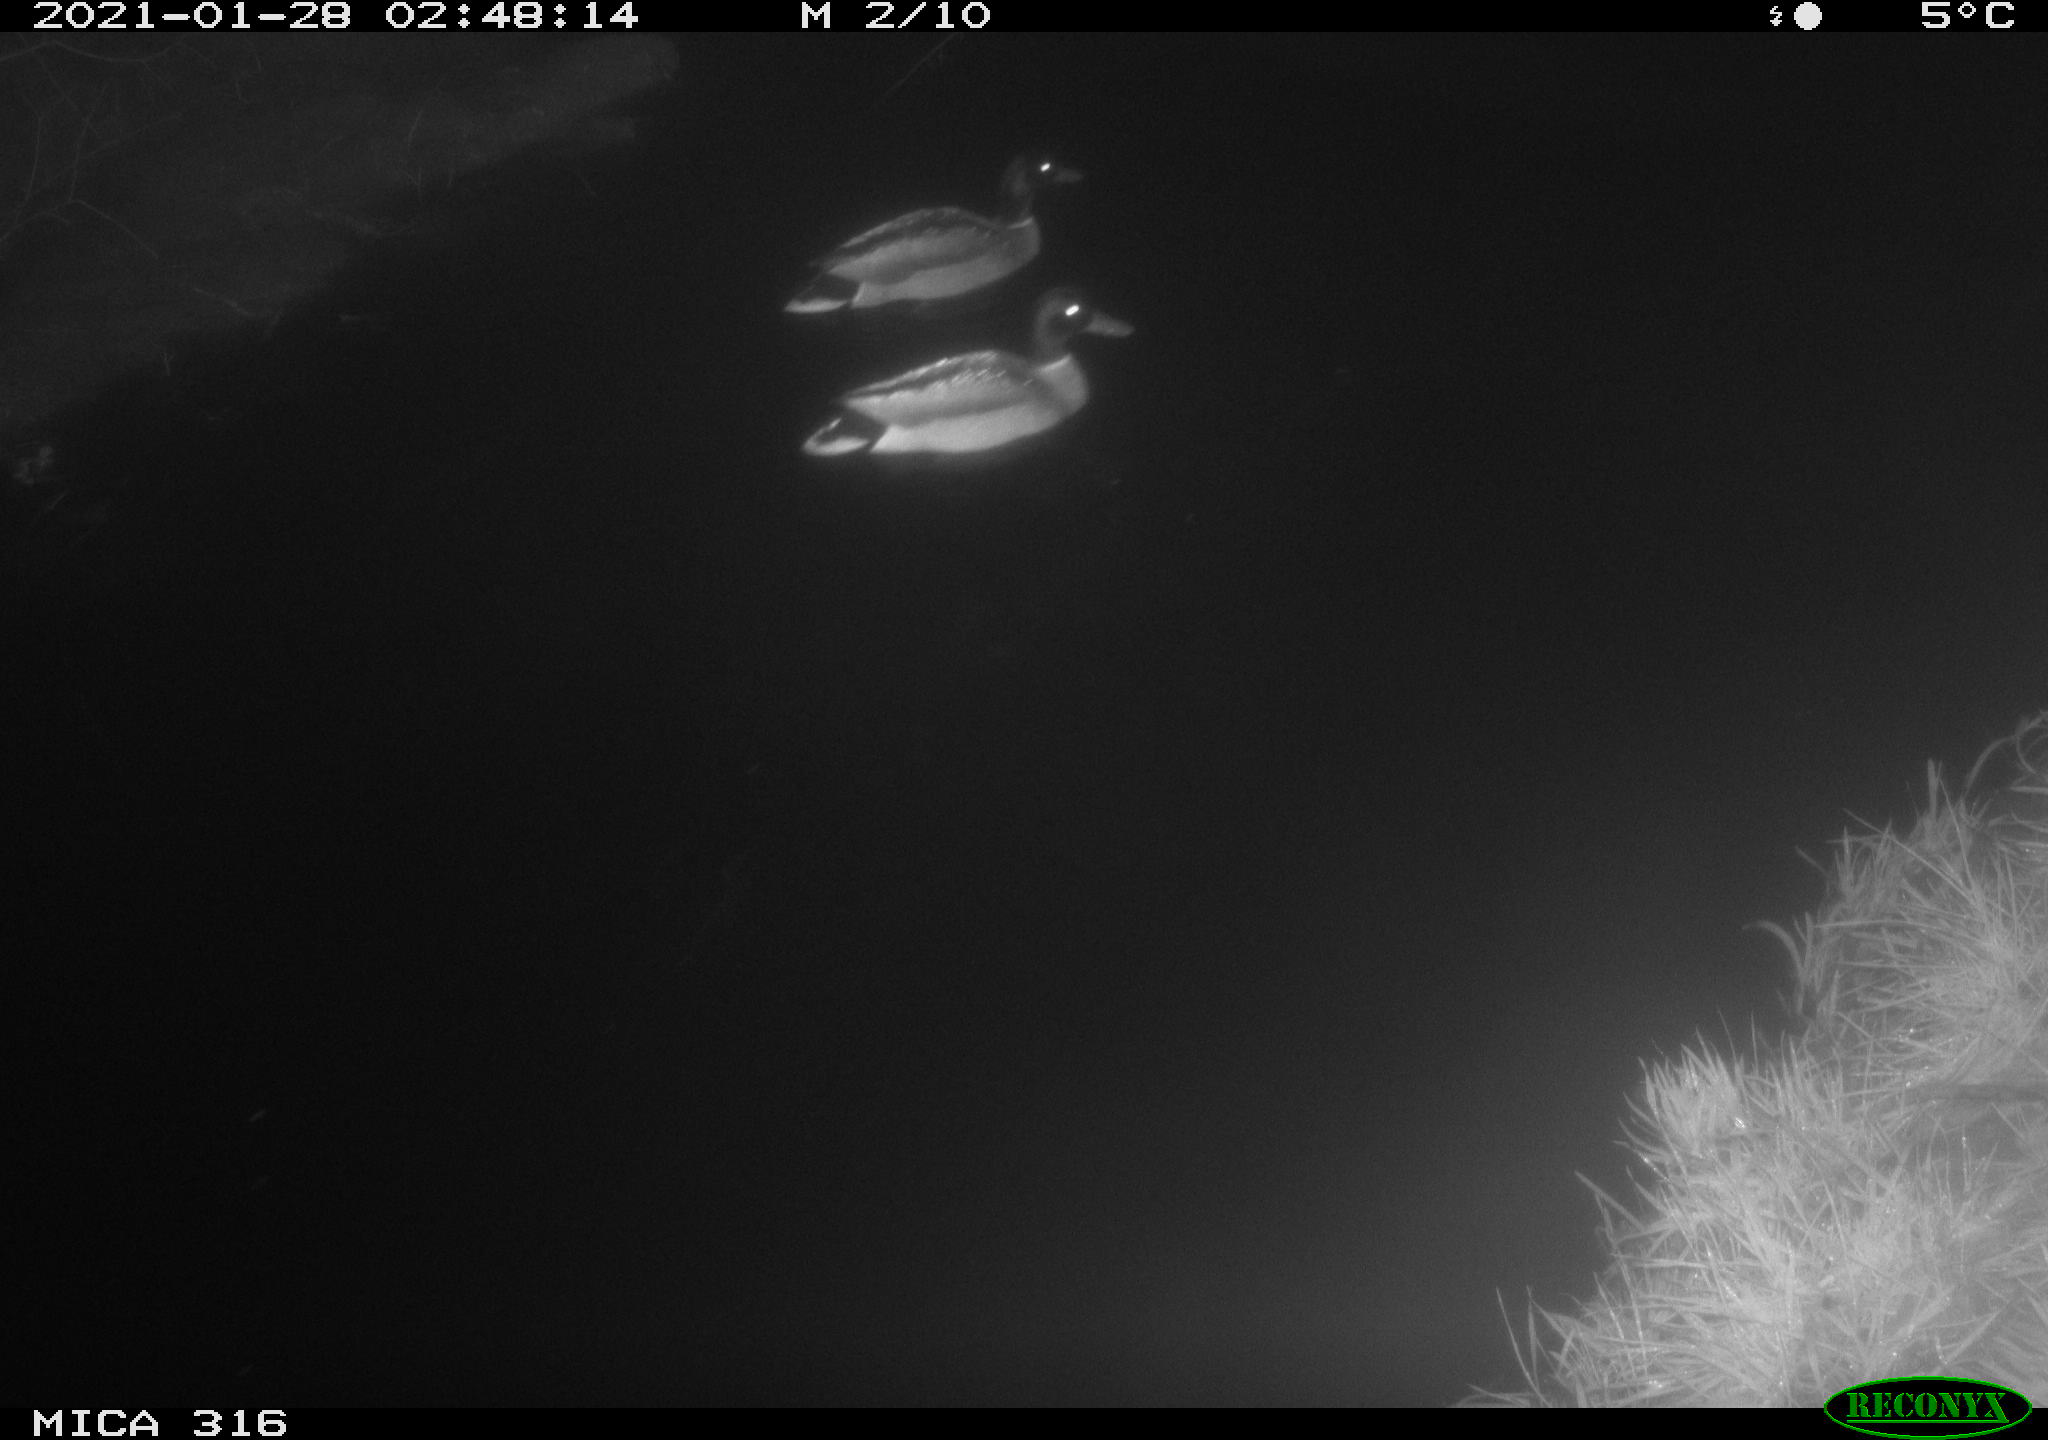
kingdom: Animalia
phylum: Chordata
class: Aves
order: Anseriformes
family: Anatidae
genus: Anas
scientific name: Anas platyrhynchos
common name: Mallard
